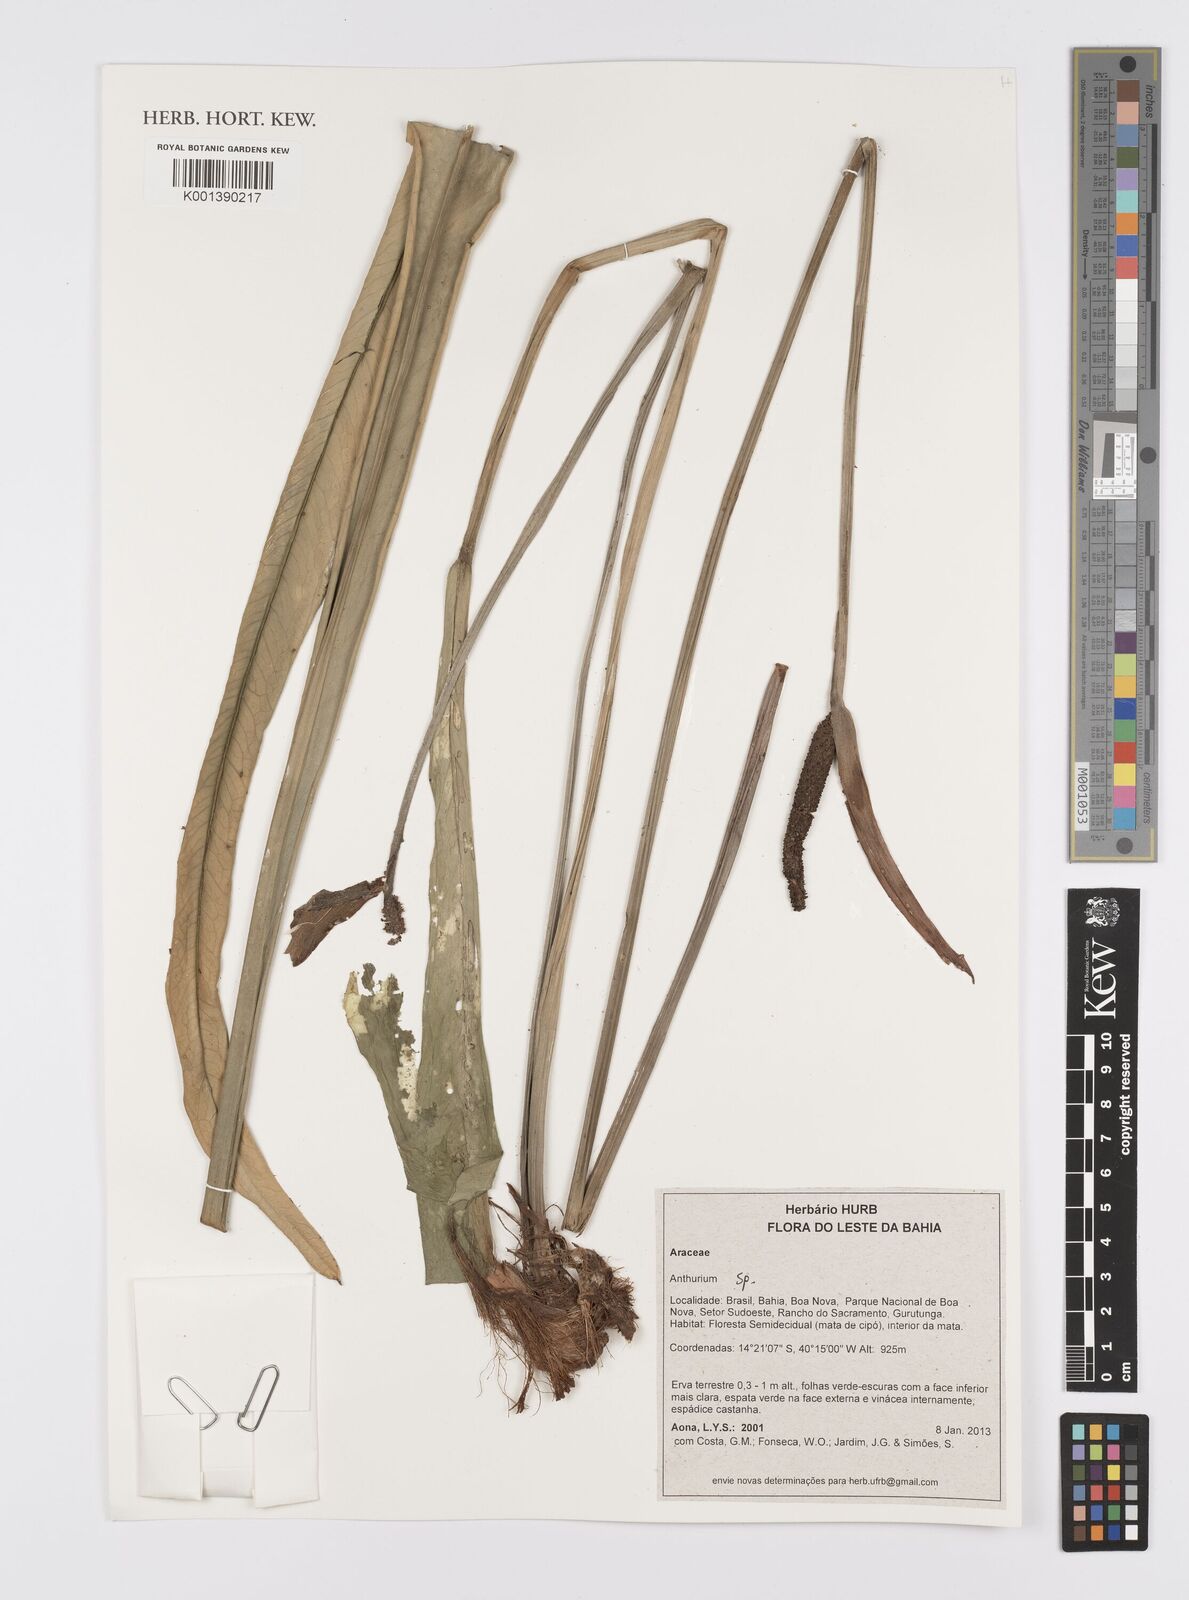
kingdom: Plantae
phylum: Tracheophyta
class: Liliopsida
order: Alismatales
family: Araceae
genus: Anthurium
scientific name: Anthurium
